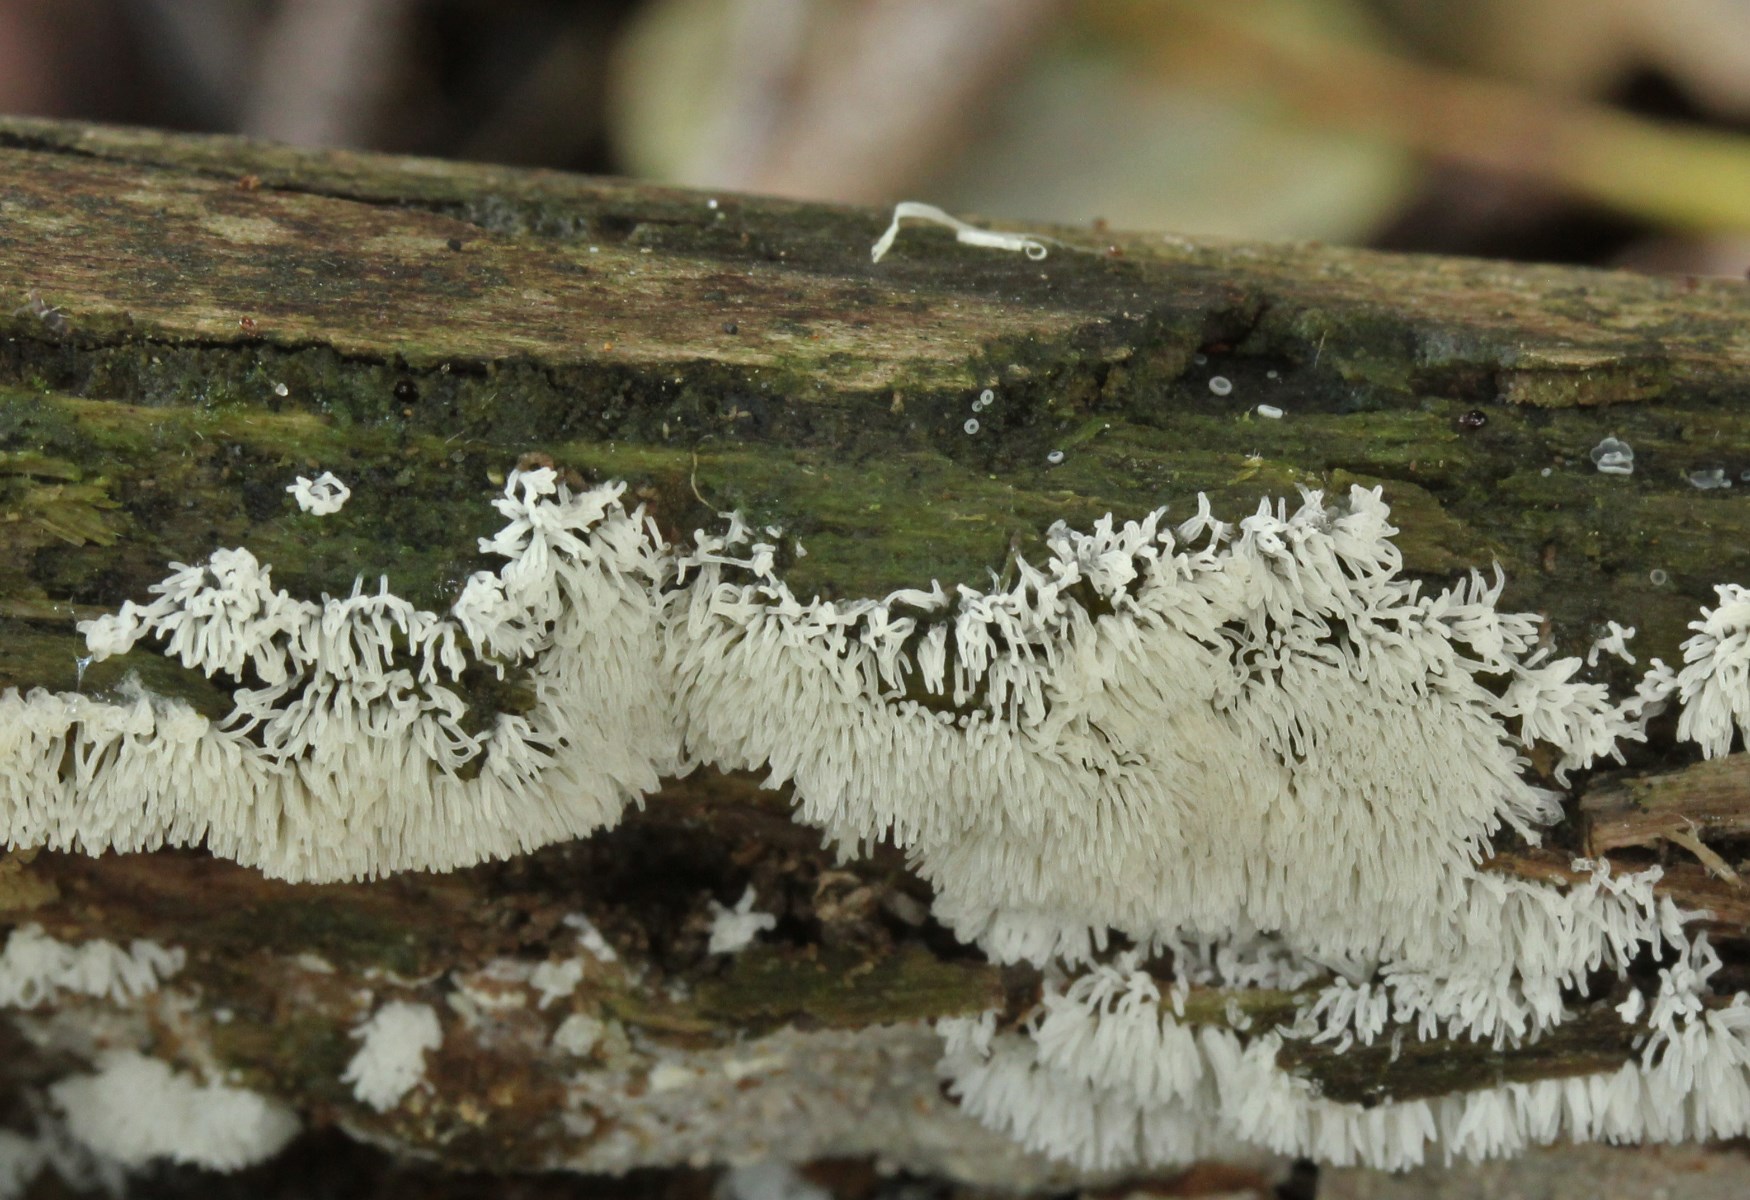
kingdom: Protozoa
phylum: Mycetozoa
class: Protosteliomycetes
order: Ceratiomyxales
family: Ceratiomyxaceae
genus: Ceratiomyxa
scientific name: Ceratiomyxa fruticulosa
